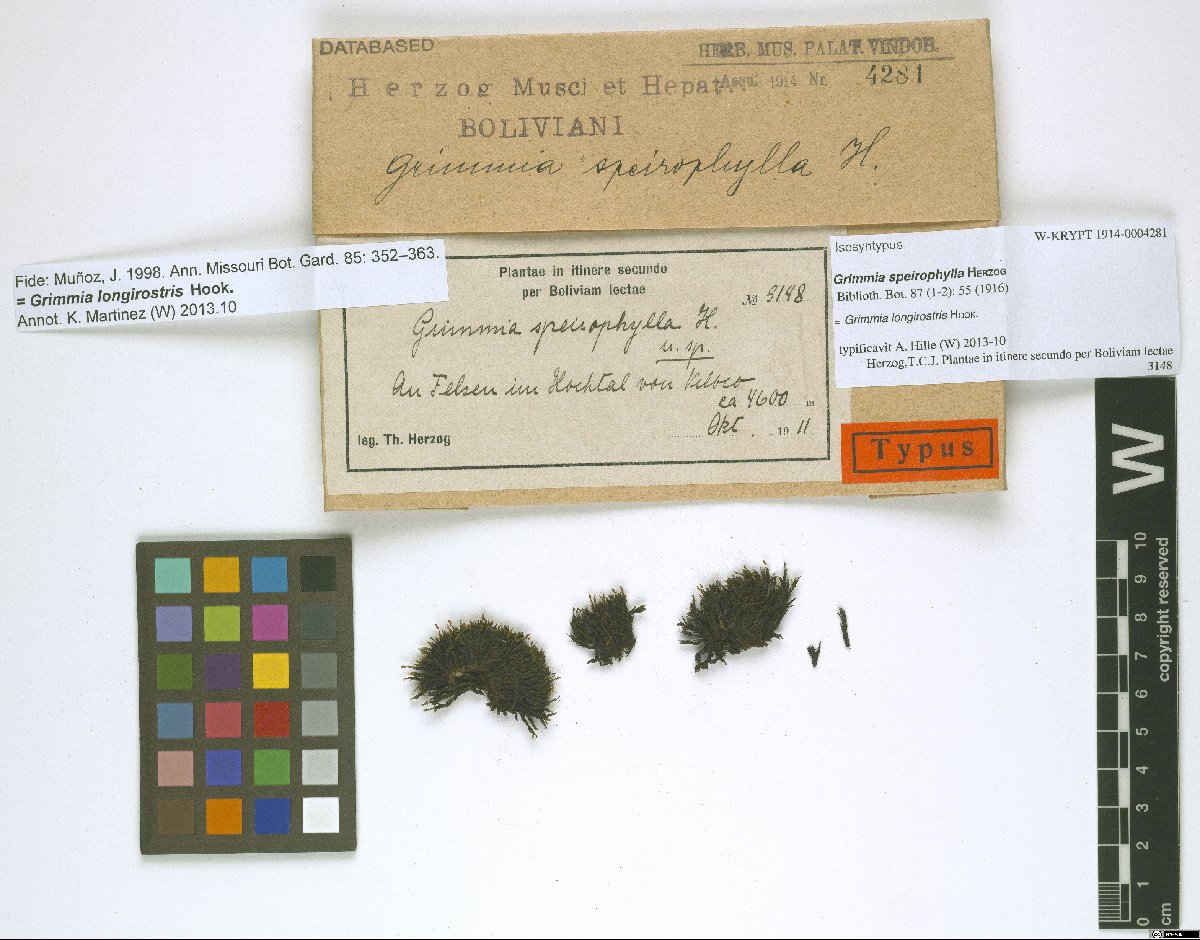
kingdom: Plantae
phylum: Bryophyta
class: Bryopsida
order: Grimmiales
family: Grimmiaceae
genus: Grimmia
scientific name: Grimmia longirostris
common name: Long-beaked grimmia
